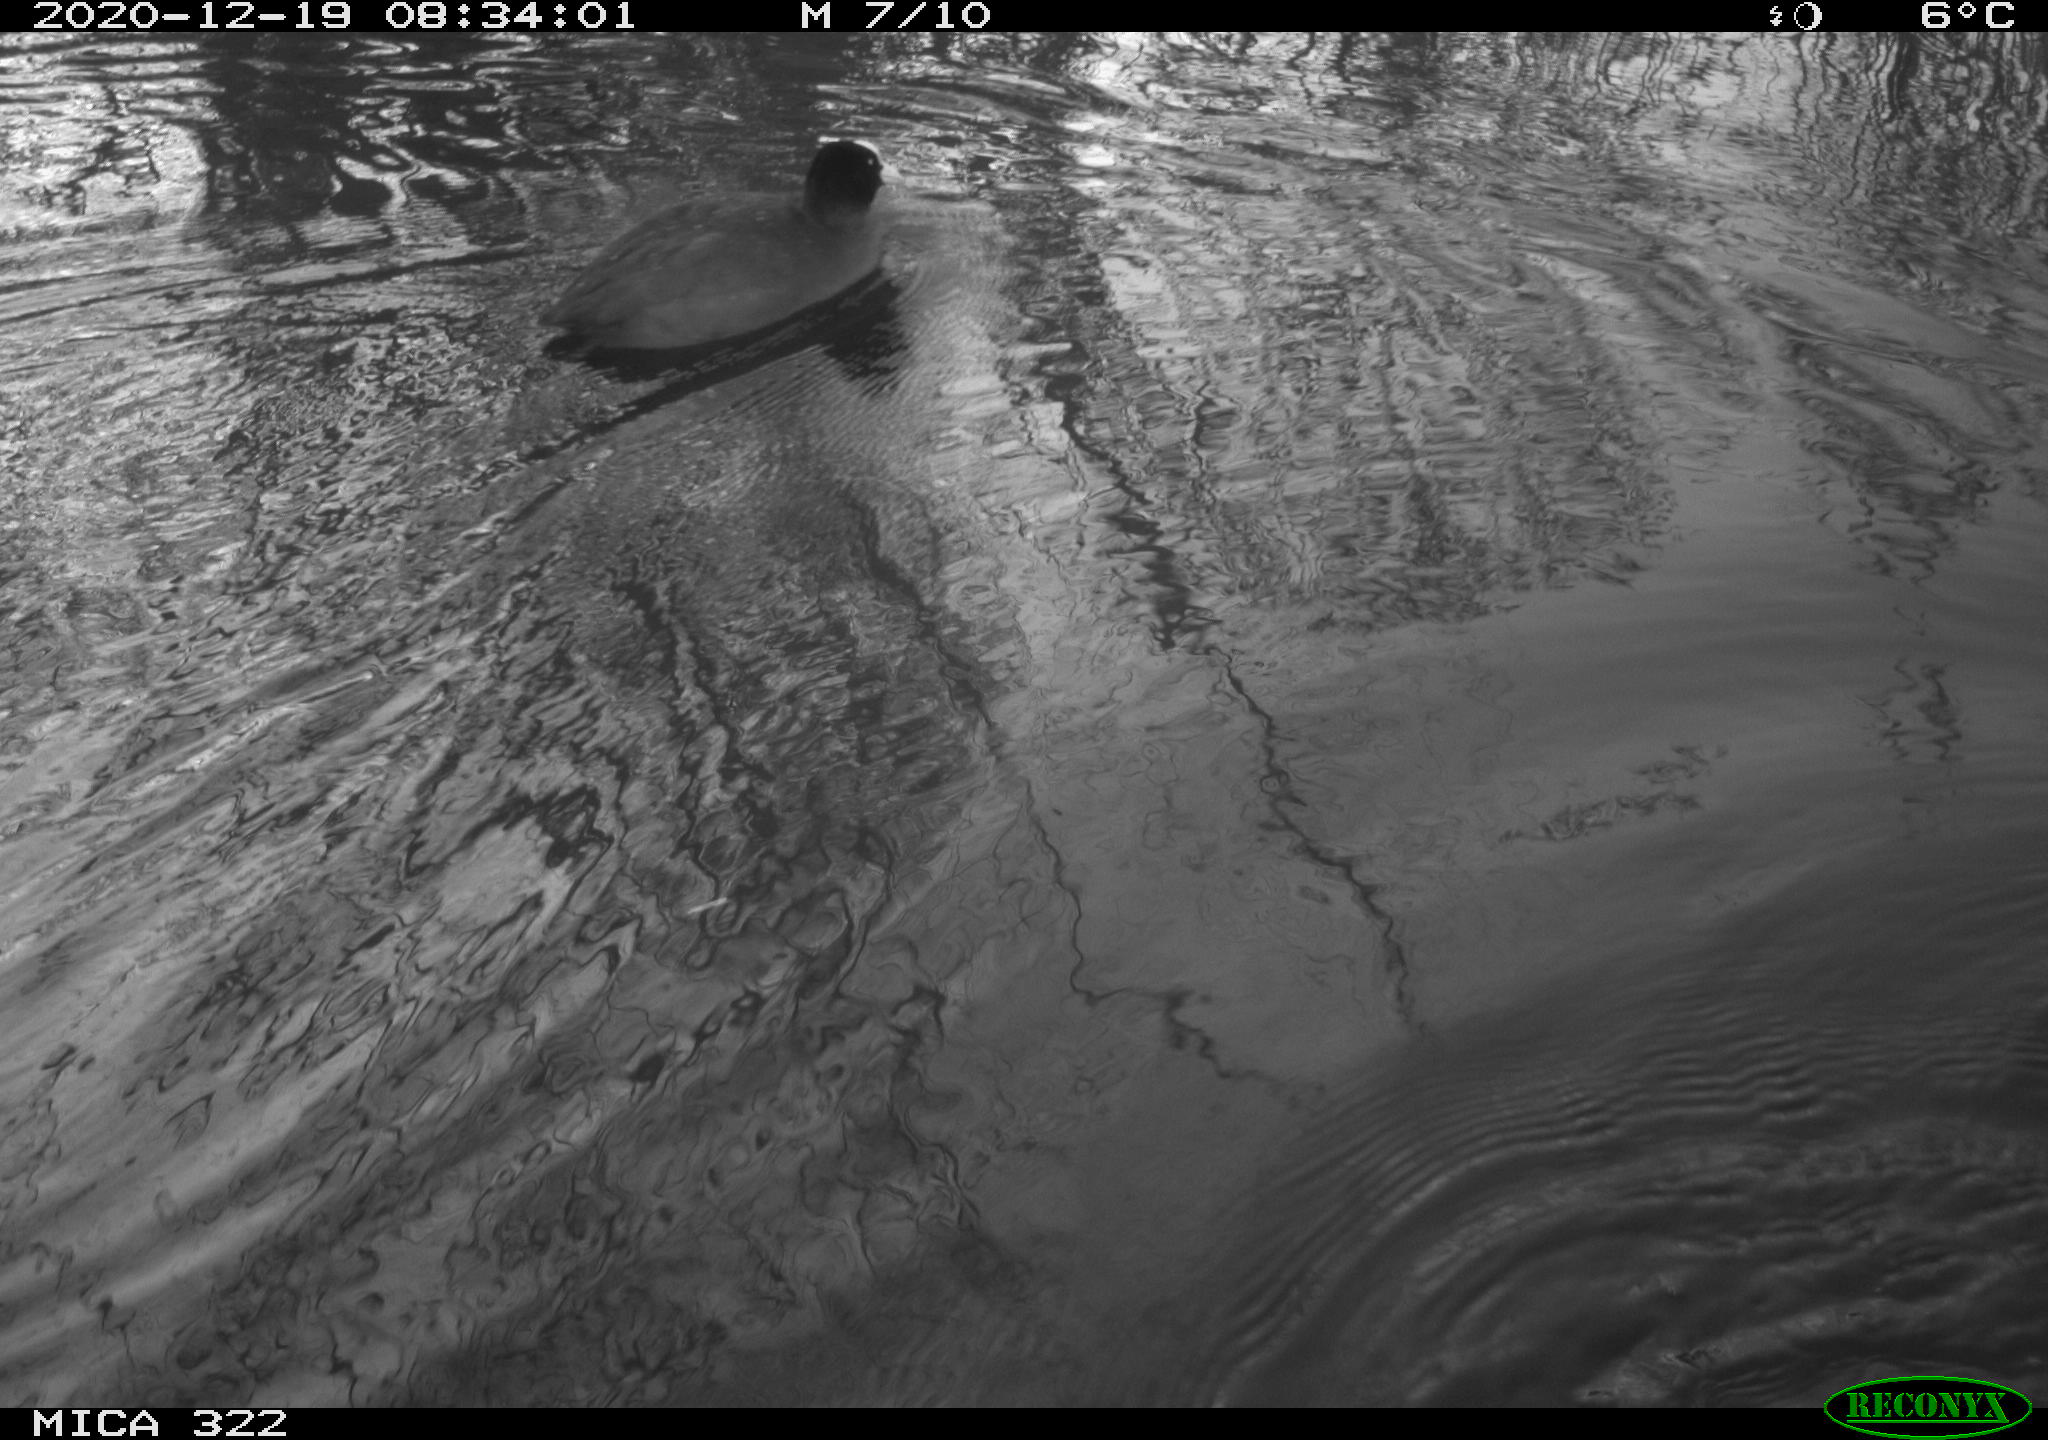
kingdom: Animalia
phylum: Chordata
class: Aves
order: Podicipediformes
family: Podicipedidae
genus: Tachybaptus
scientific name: Tachybaptus ruficollis
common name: Little grebe
